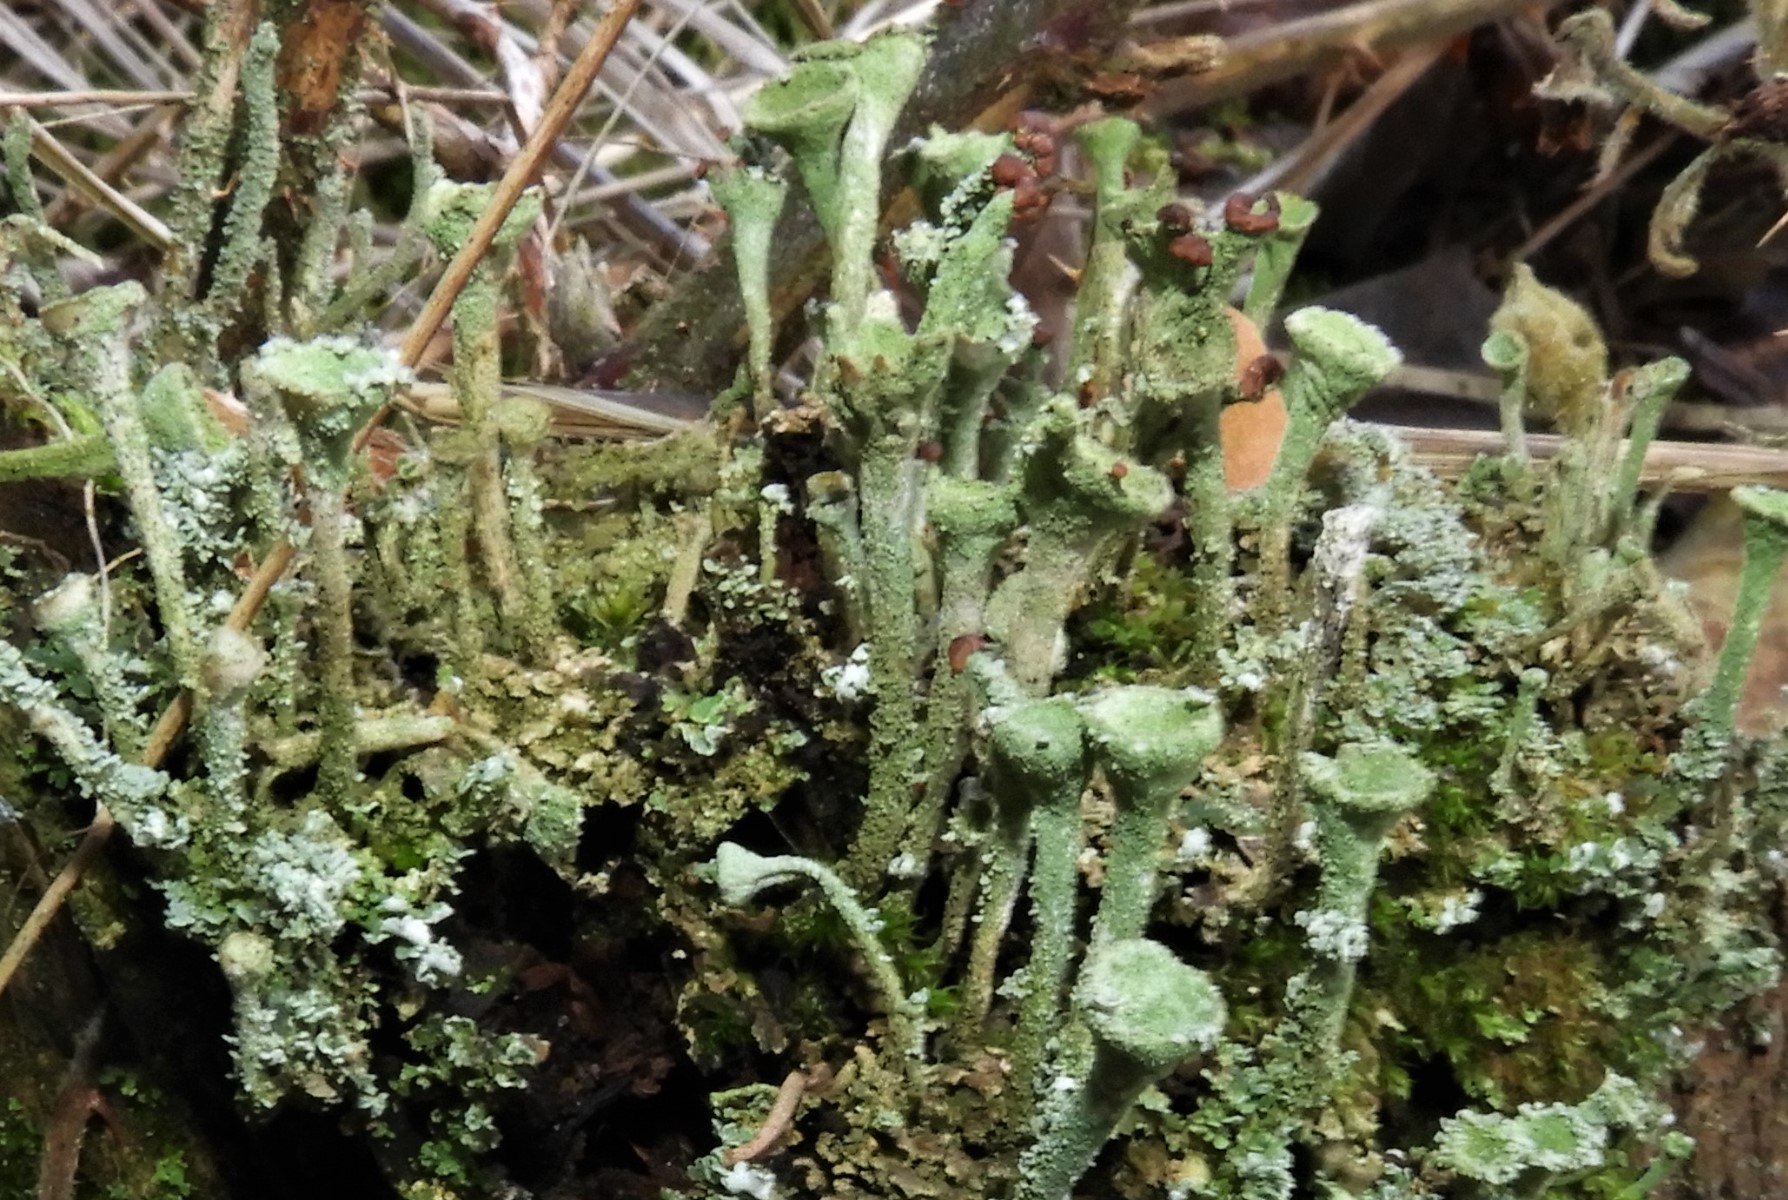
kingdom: Fungi
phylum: Ascomycota
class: Lecanoromycetes
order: Lecanorales
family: Cladoniaceae
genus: Cladonia
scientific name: Cladonia fimbriata
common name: bleggrøn bægerlav
